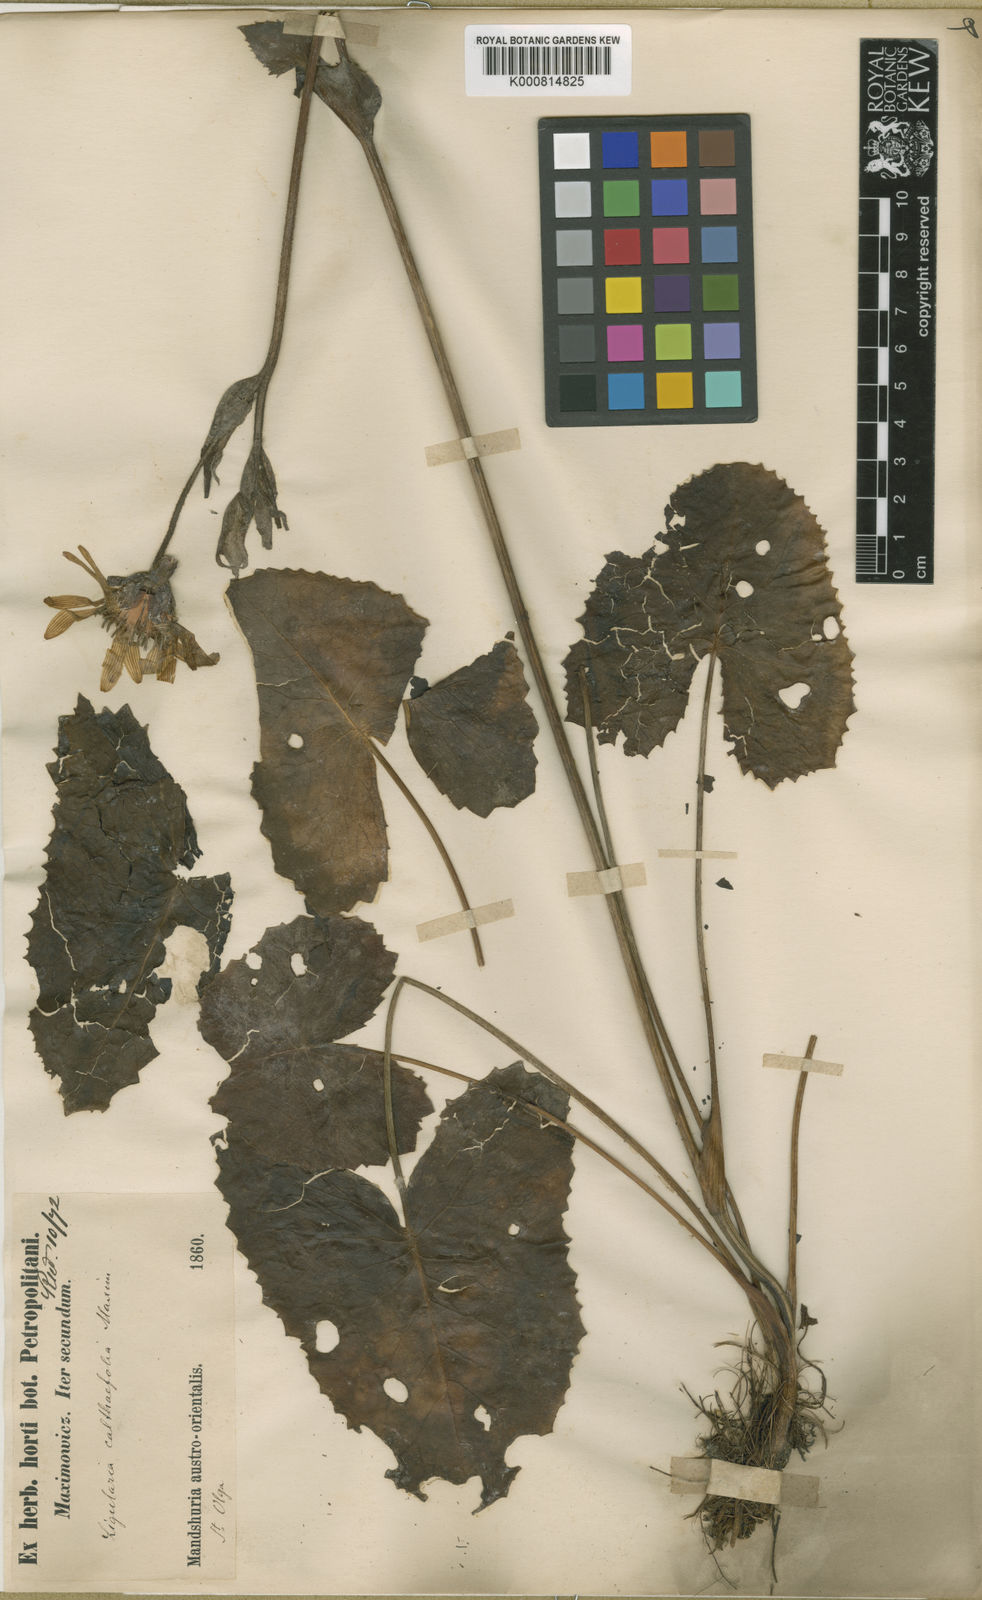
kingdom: Plantae
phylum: Tracheophyta
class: Magnoliopsida
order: Asterales
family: Asteraceae
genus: Ligularia
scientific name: Ligularia calthifolia
